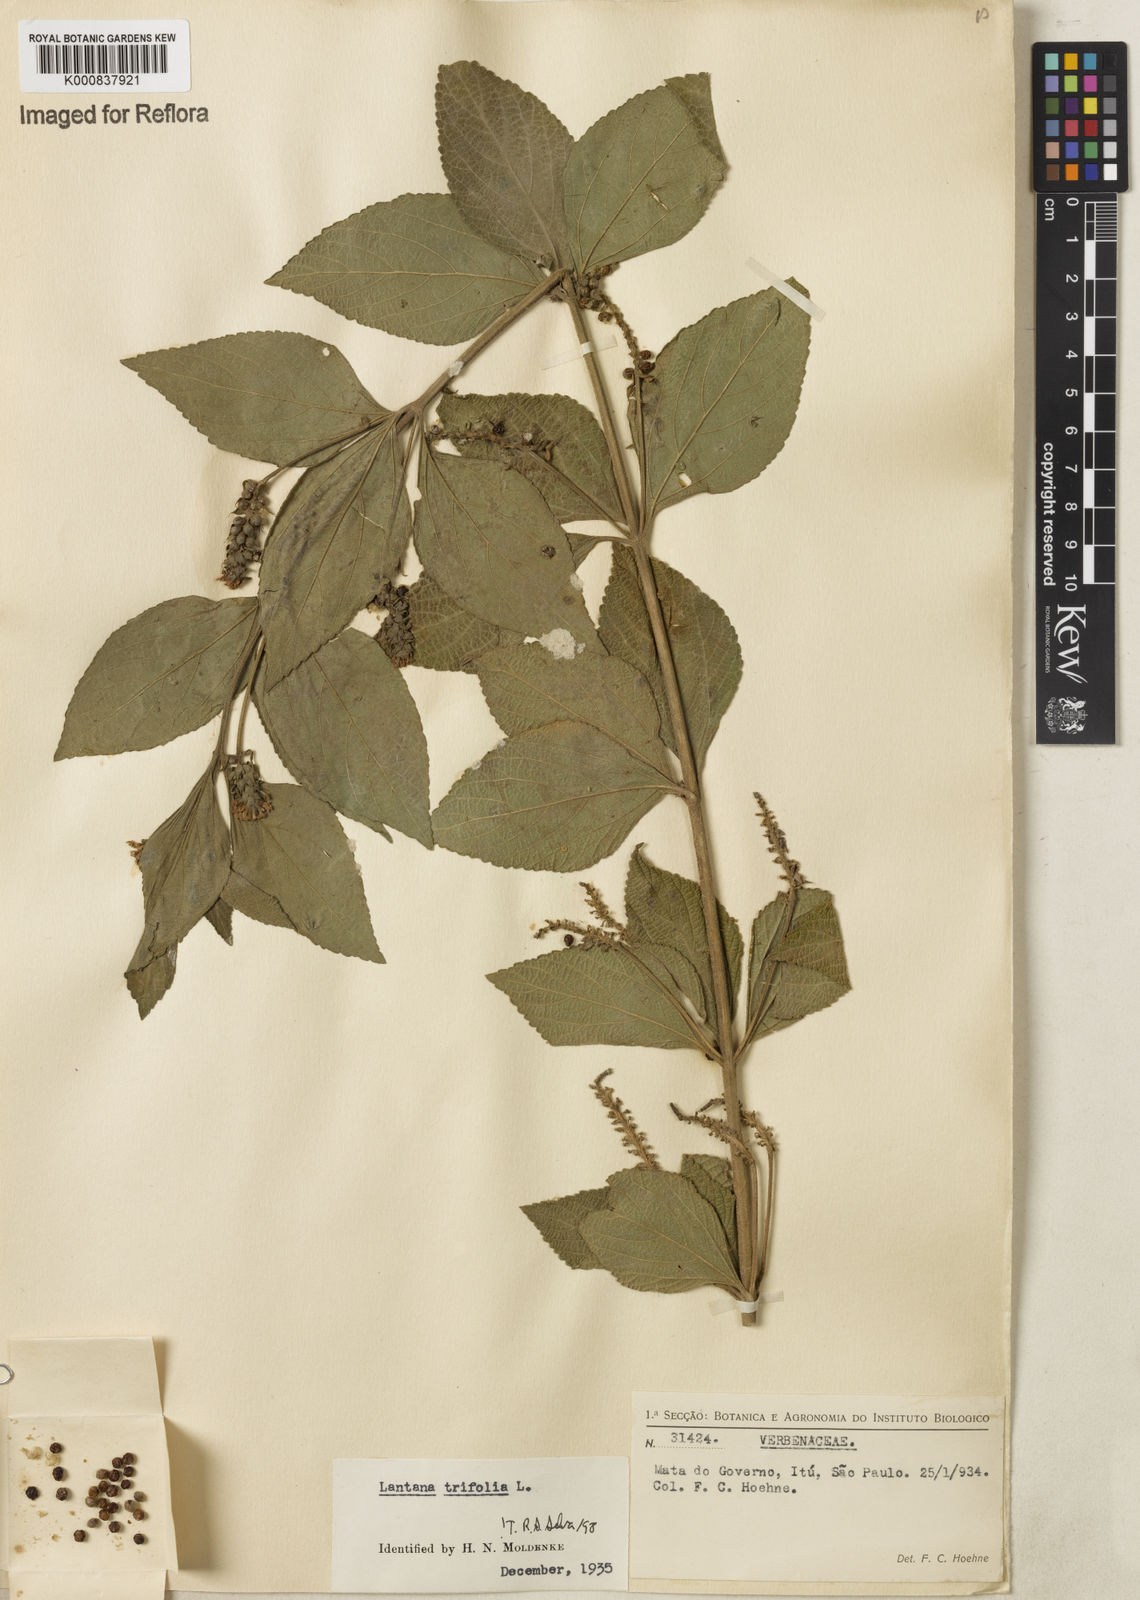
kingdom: Plantae
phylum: Tracheophyta
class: Magnoliopsida
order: Lamiales
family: Verbenaceae
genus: Lantana
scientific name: Lantana trifolia
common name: Sweet-sage
